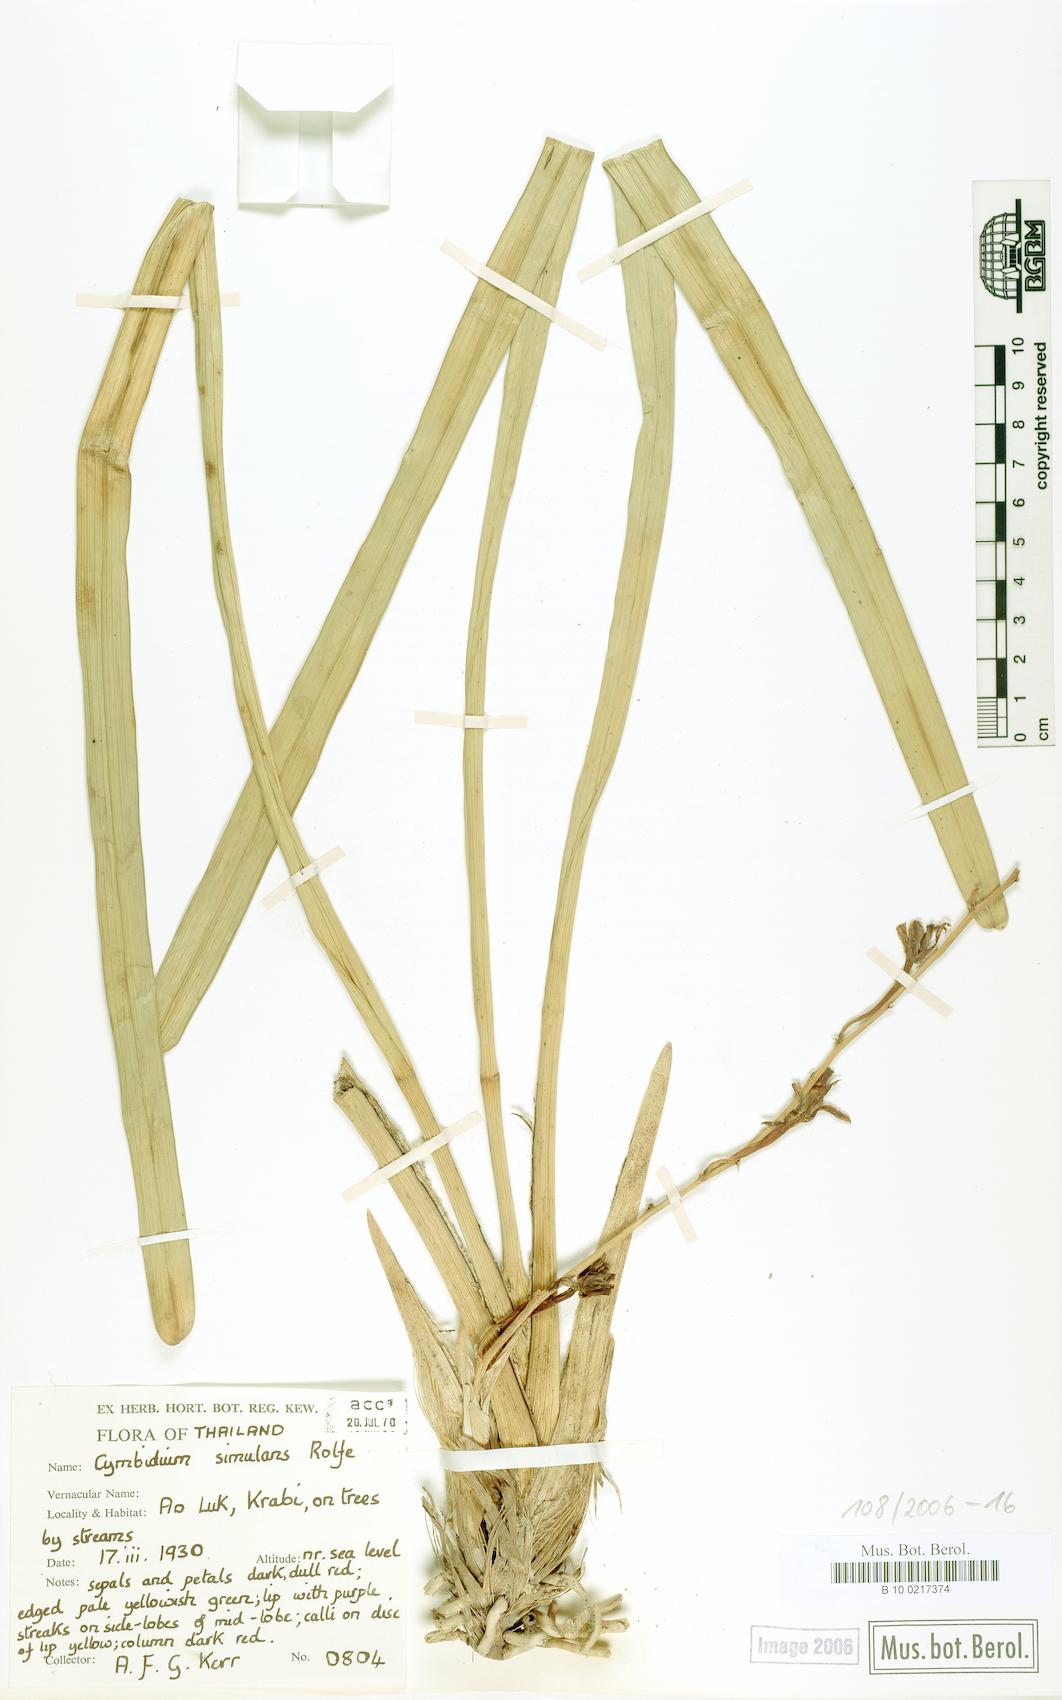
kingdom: Plantae
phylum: Tracheophyta
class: Liliopsida
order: Asparagales
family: Orchidaceae
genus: Cymbidium
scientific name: Cymbidium aloifolium
